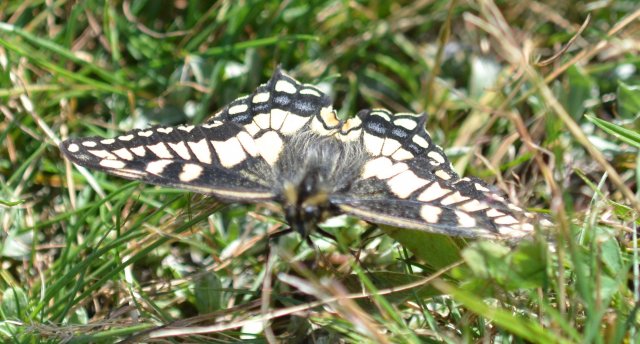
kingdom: Animalia
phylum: Arthropoda
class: Insecta
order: Lepidoptera
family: Papilionidae
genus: Papilio
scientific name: Papilio machaon
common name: Old World Swallowtail
